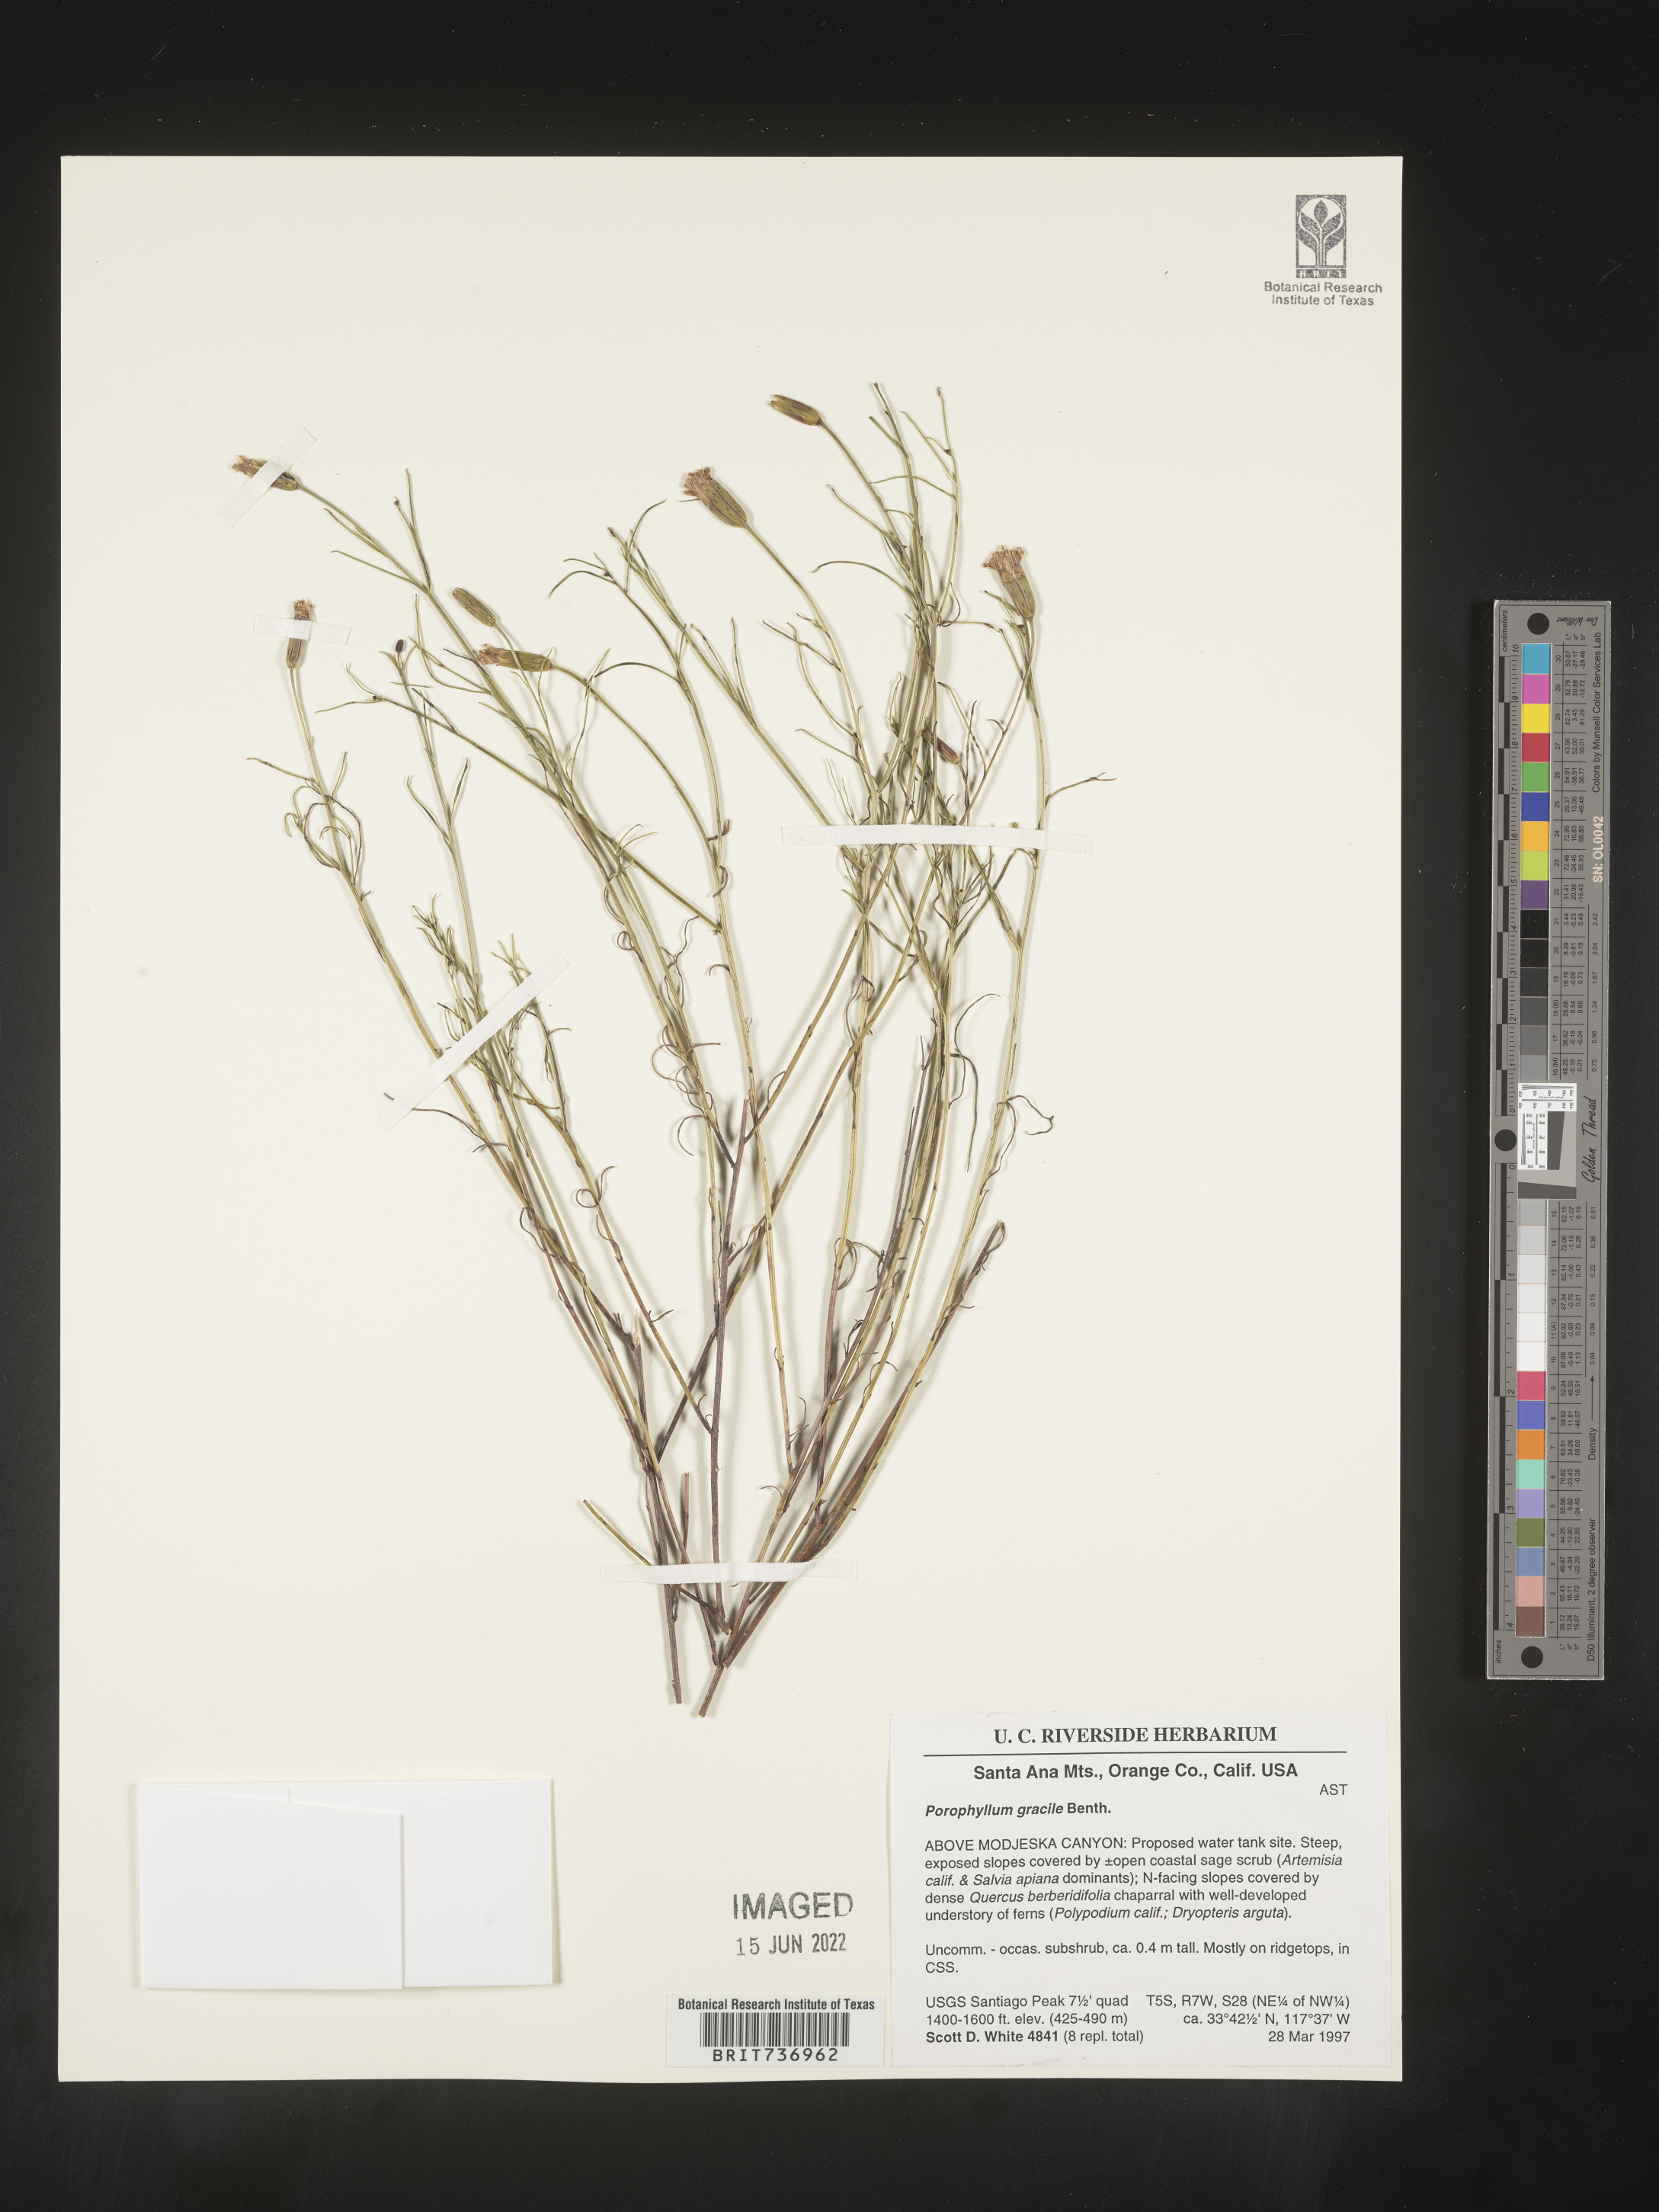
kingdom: Plantae
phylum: Tracheophyta
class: Magnoliopsida
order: Asterales
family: Asteraceae
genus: Porophyllum
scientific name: Porophyllum
